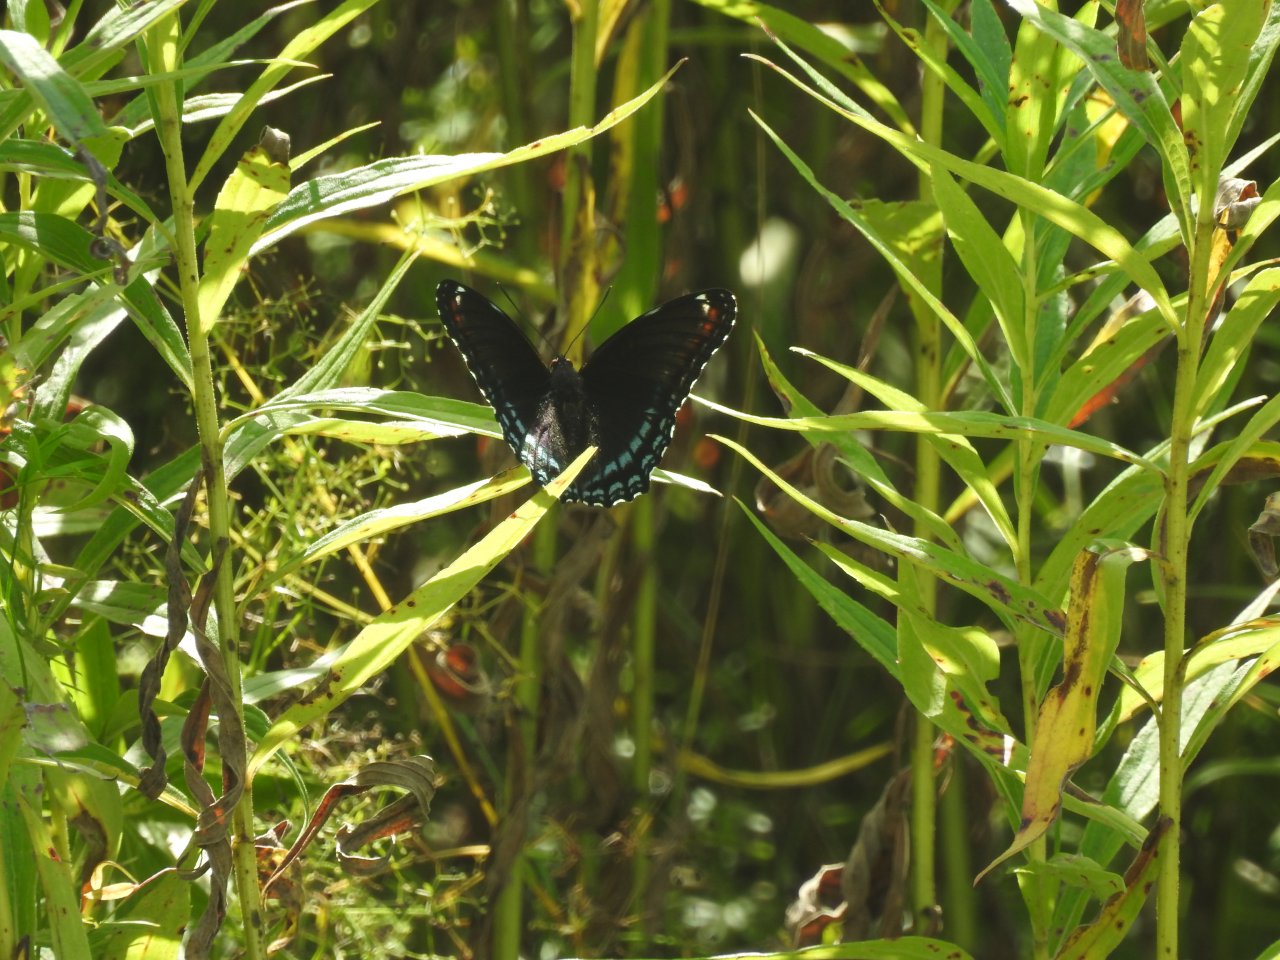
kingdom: Animalia
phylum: Arthropoda
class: Insecta
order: Lepidoptera
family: Nymphalidae
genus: Limenitis
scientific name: Limenitis astyanax
